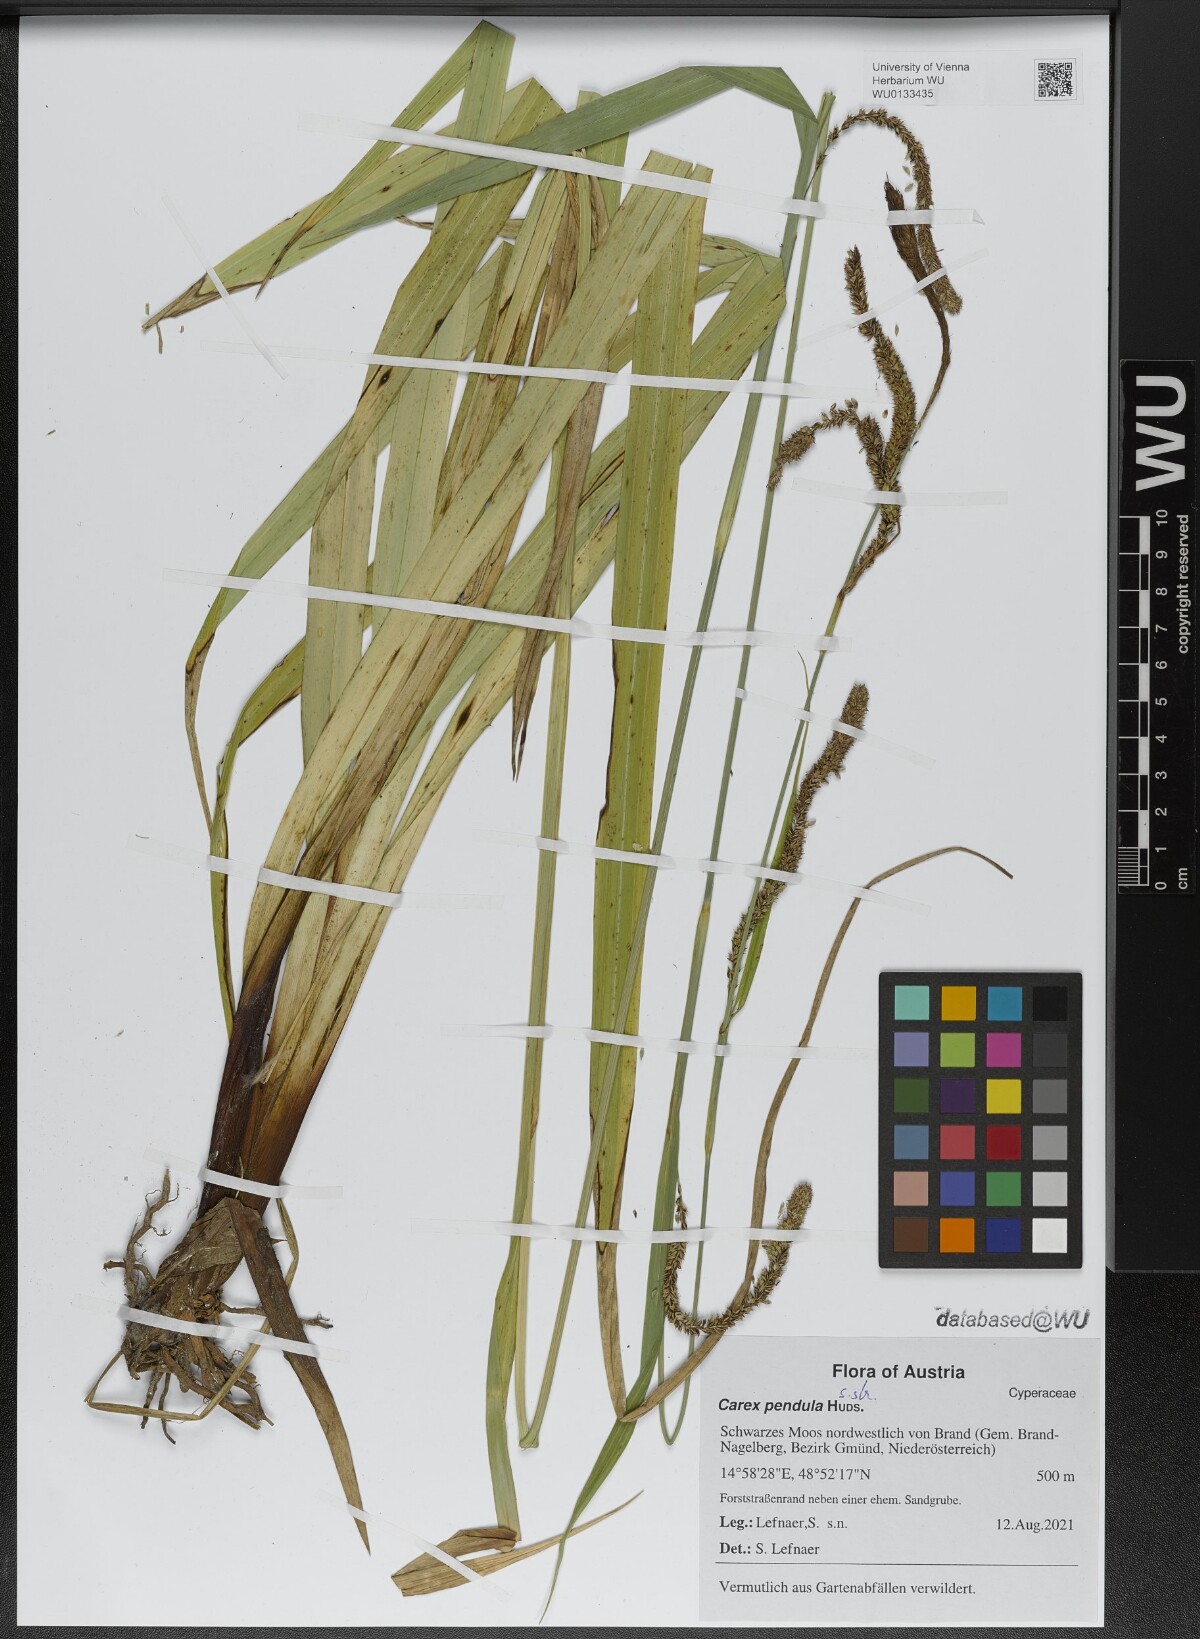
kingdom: Plantae
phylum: Tracheophyta
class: Liliopsida
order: Poales
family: Cyperaceae
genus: Carex
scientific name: Carex pendula
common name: Pendulous sedge
